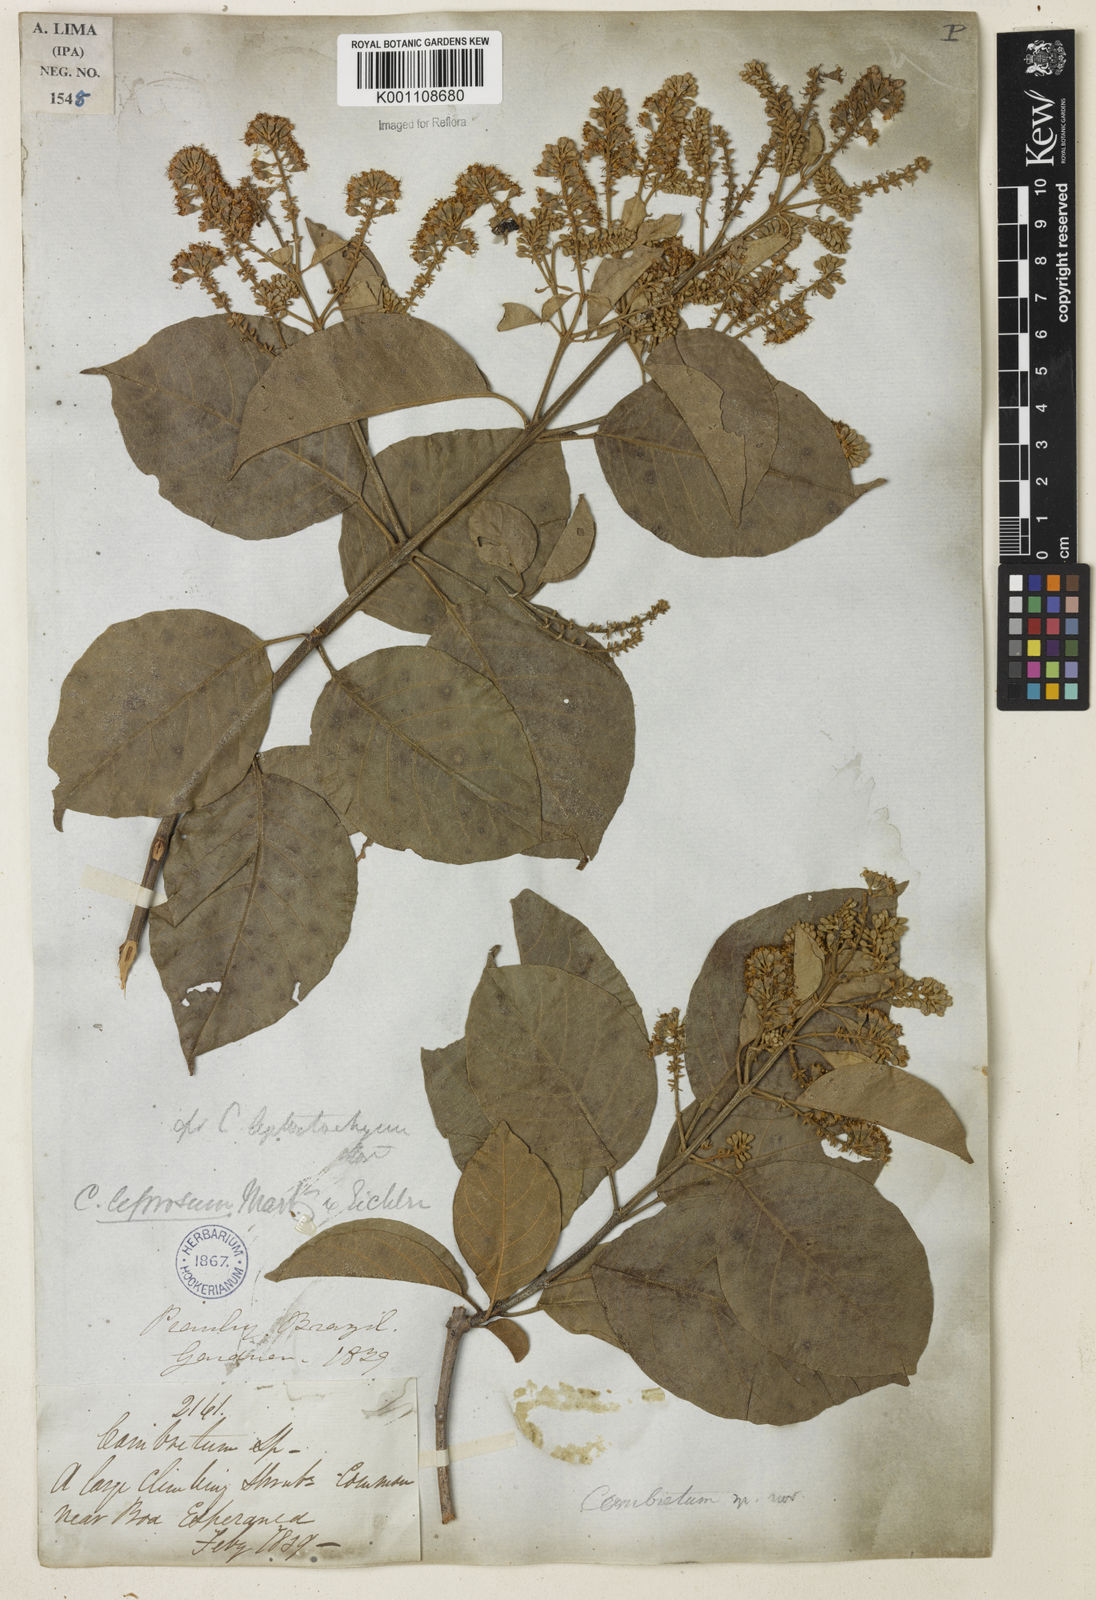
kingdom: Plantae
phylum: Tracheophyta
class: Magnoliopsida
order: Myrtales
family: Combretaceae
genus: Combretum
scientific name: Combretum leprosum
